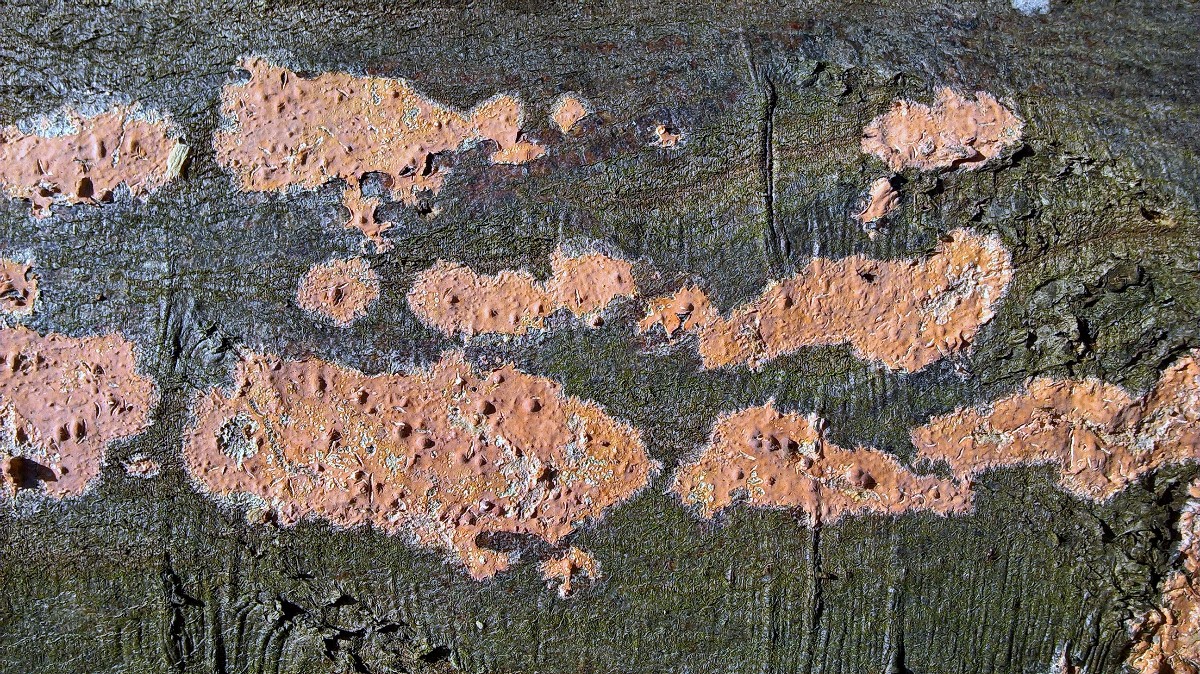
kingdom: Fungi
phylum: Basidiomycota
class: Agaricomycetes
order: Russulales
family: Peniophoraceae
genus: Peniophora
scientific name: Peniophora incarnata
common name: laksefarvet voksskind
